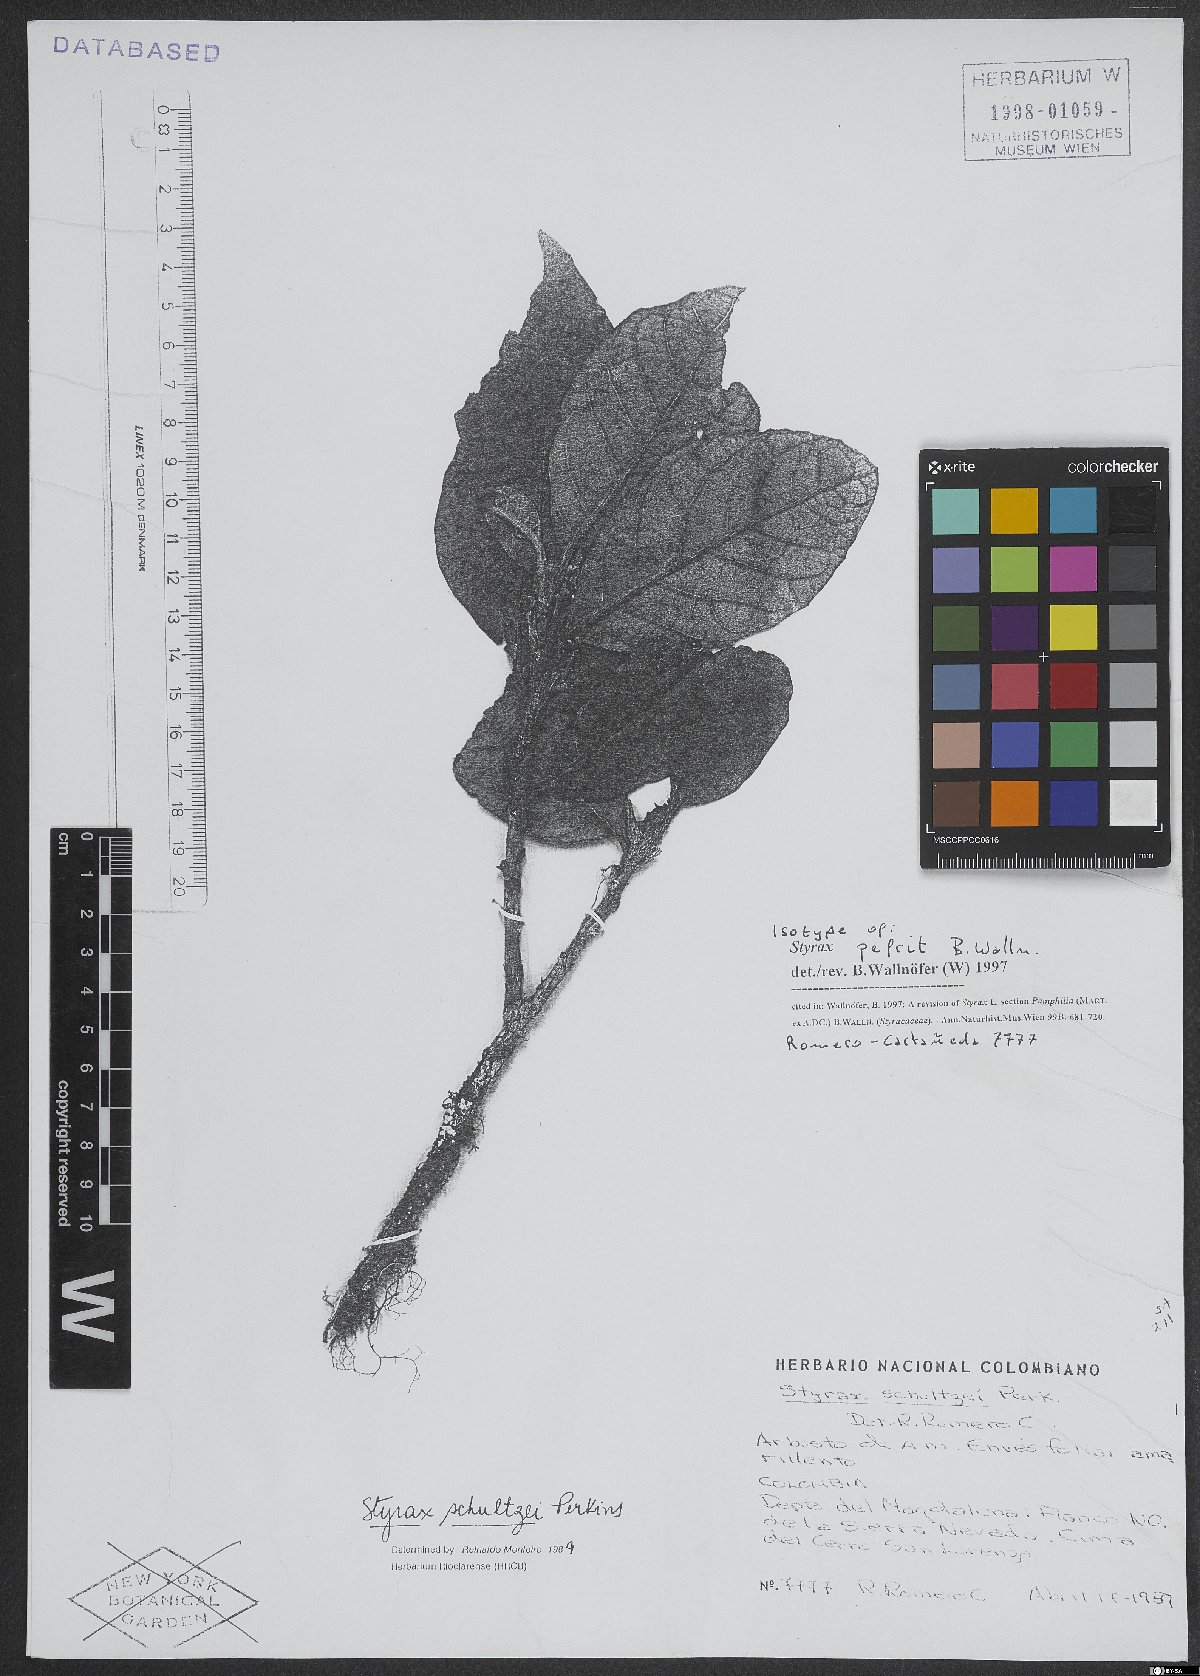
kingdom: Plantae
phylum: Tracheophyta
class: Magnoliopsida
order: Ericales
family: Styracaceae
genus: Styrax
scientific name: Styrax pefrit
